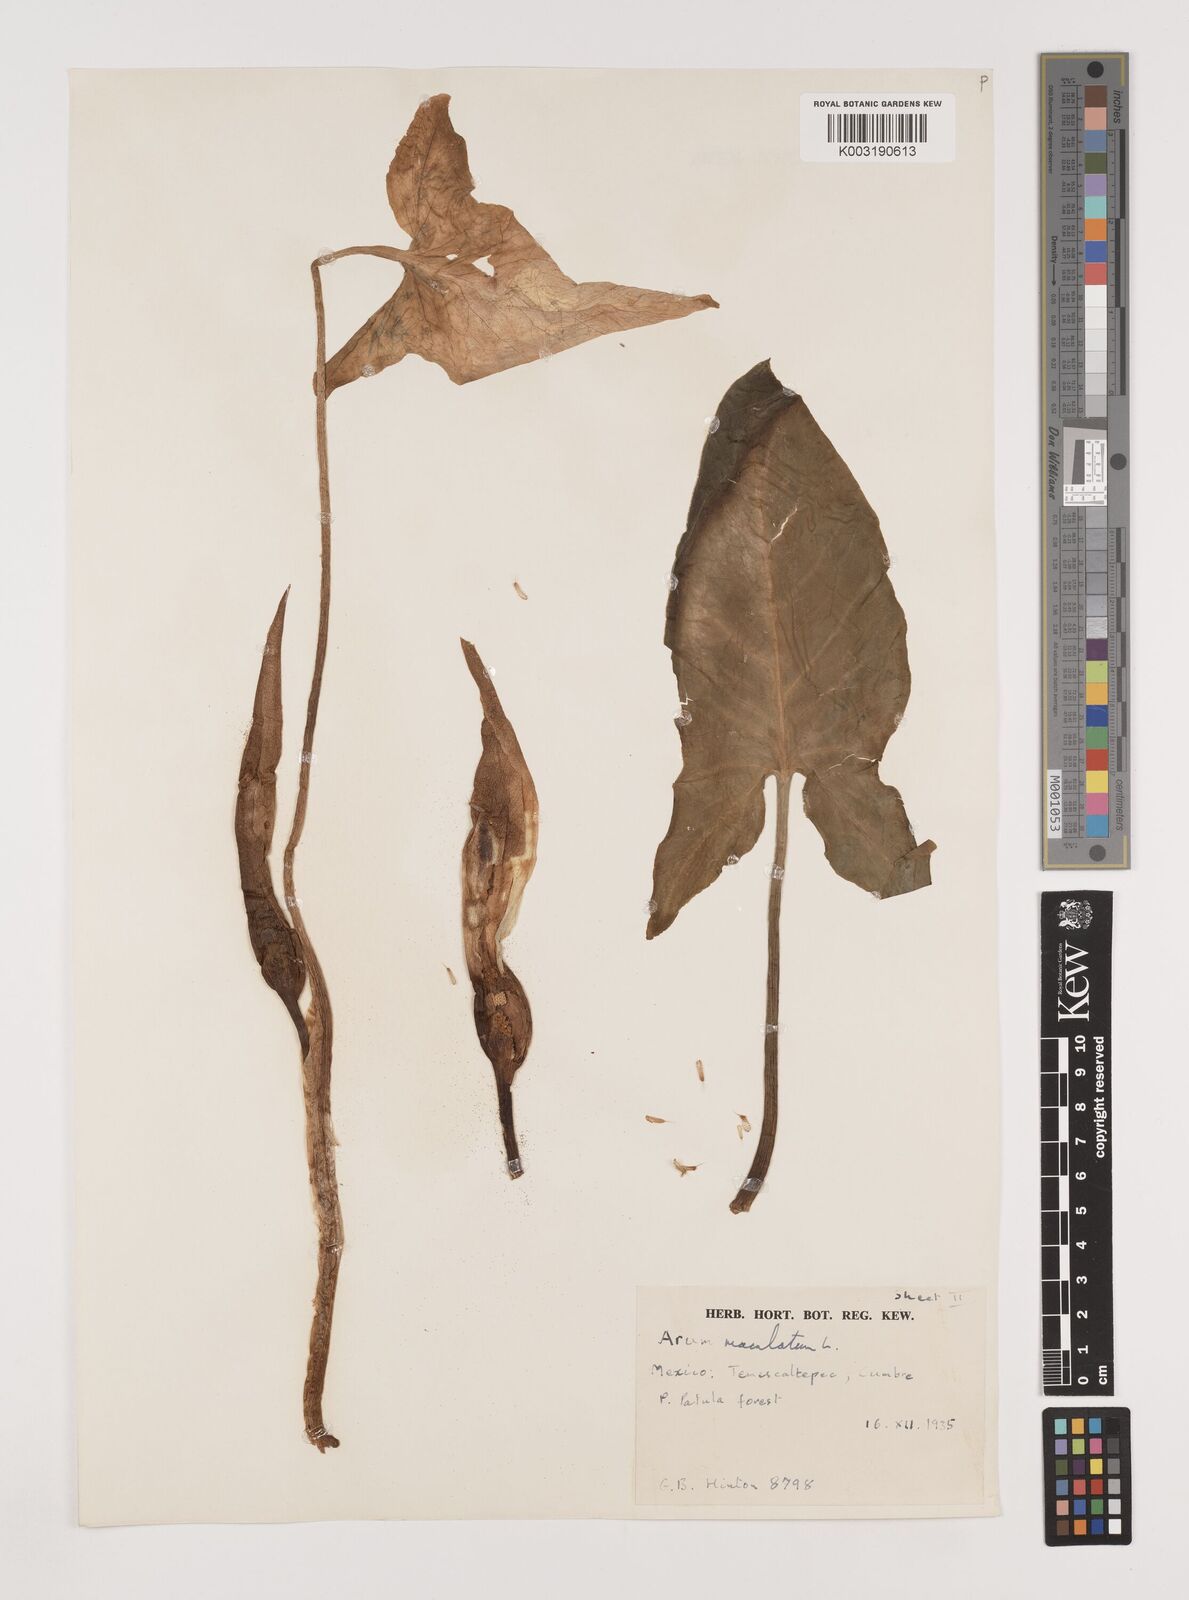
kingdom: Plantae
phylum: Tracheophyta
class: Liliopsida
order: Alismatales
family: Araceae
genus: Arum
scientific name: Arum
